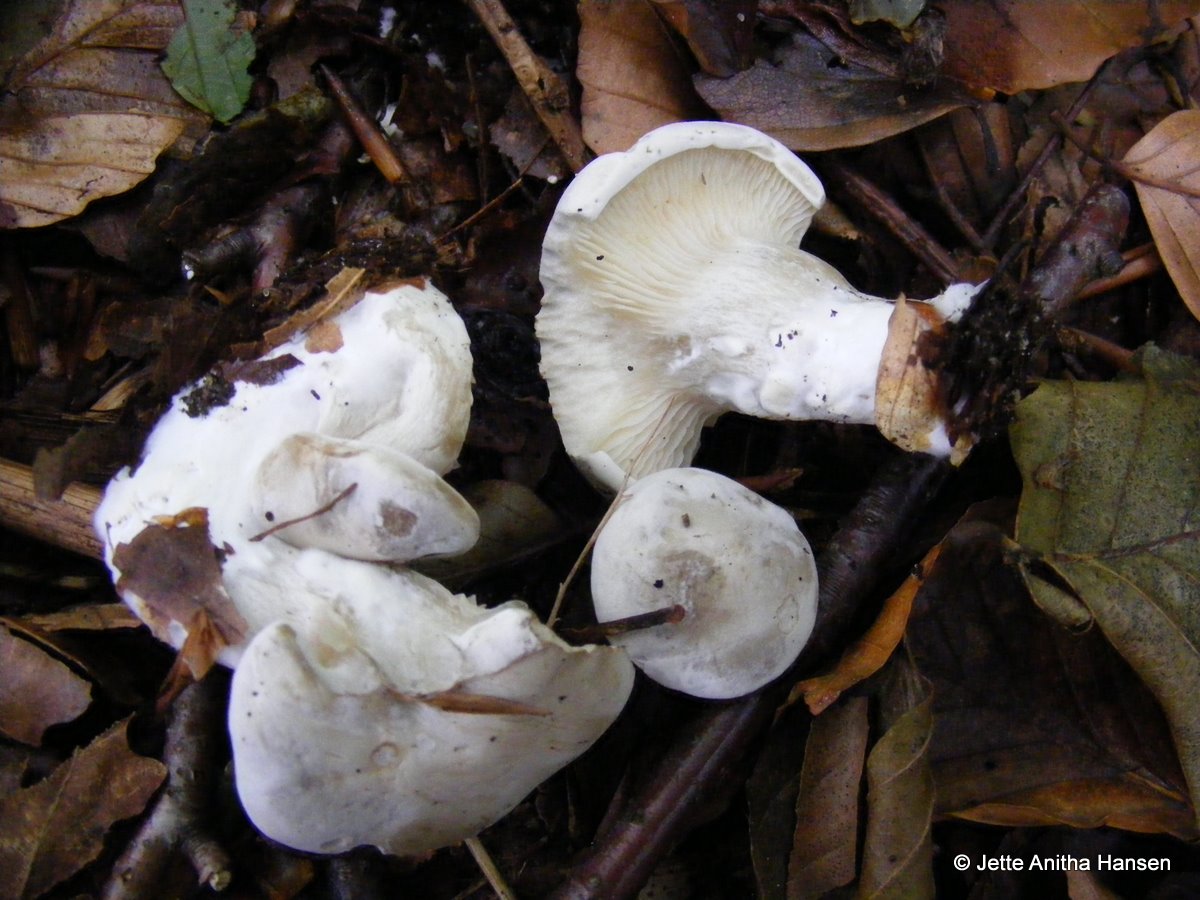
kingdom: Fungi
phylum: Basidiomycota
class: Agaricomycetes
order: Agaricales
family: Entolomataceae
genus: Clitopilus
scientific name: Clitopilus prunulus
